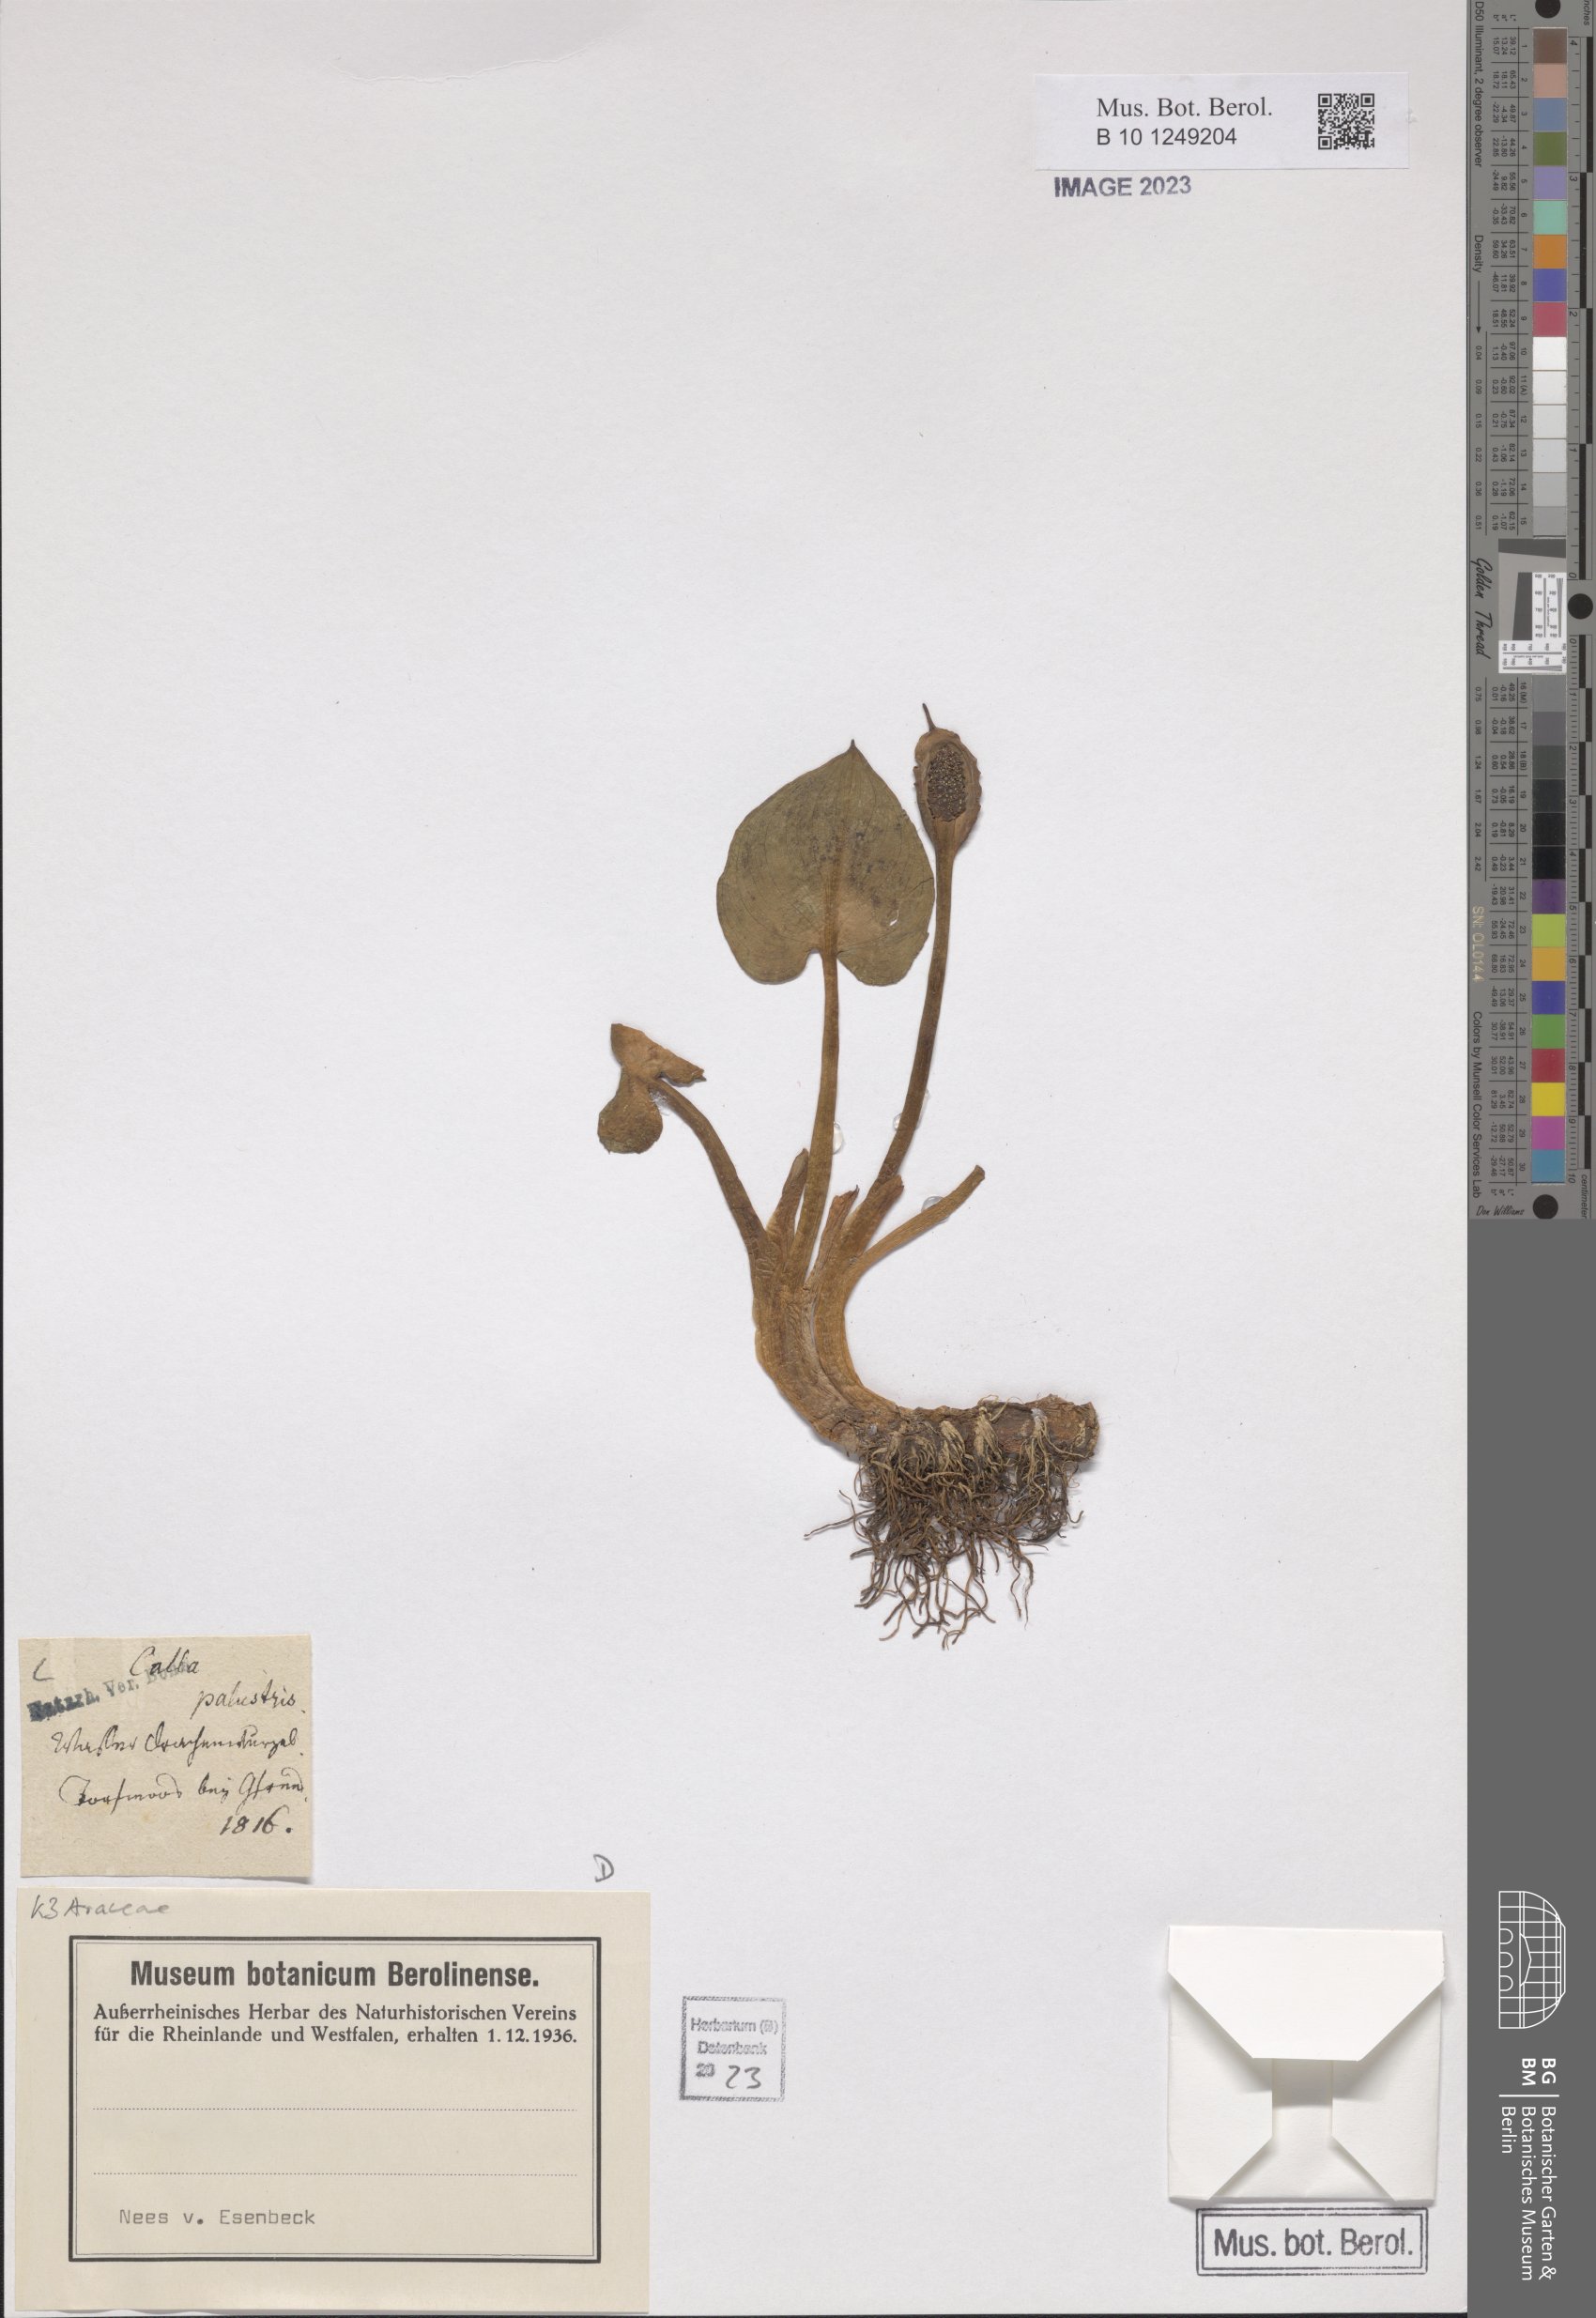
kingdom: Plantae
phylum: Tracheophyta
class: Liliopsida
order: Alismatales
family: Araceae
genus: Calla
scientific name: Calla palustris
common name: Bog arum
